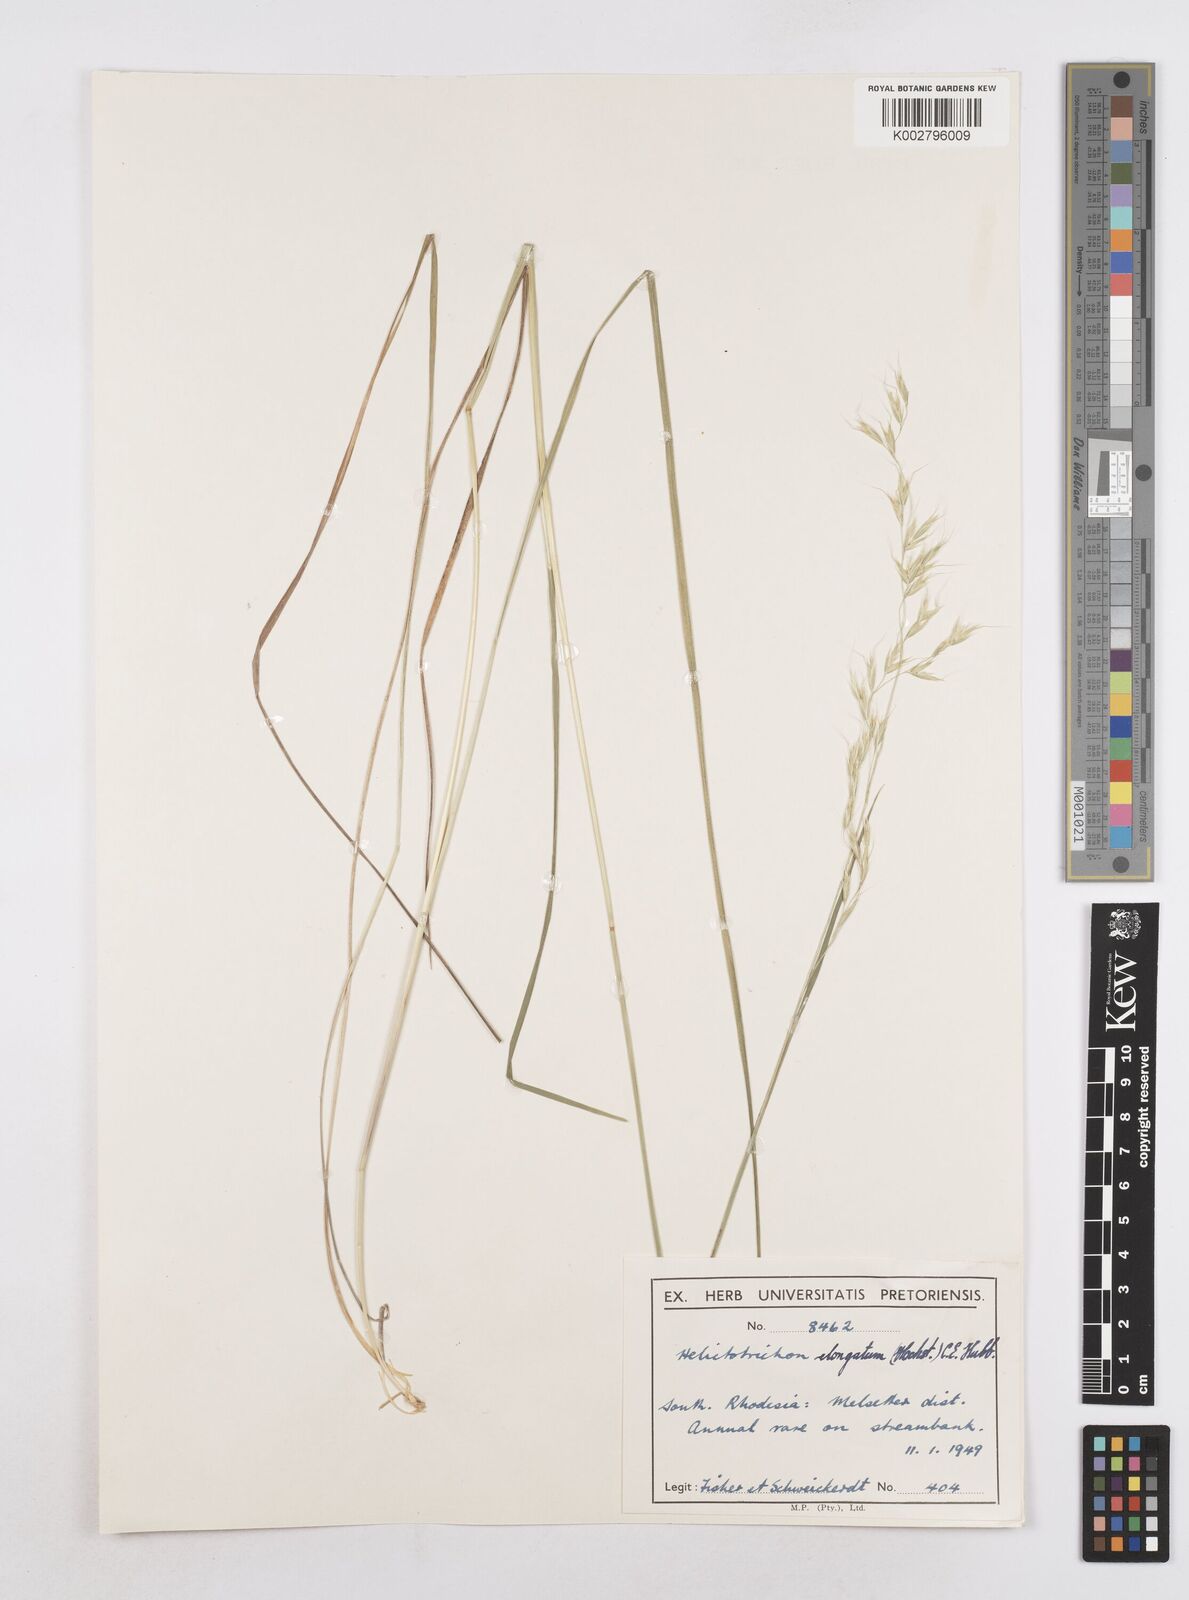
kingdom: Plantae
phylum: Tracheophyta
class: Liliopsida
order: Poales
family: Poaceae
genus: Trisetopsis
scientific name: Trisetopsis elongata
